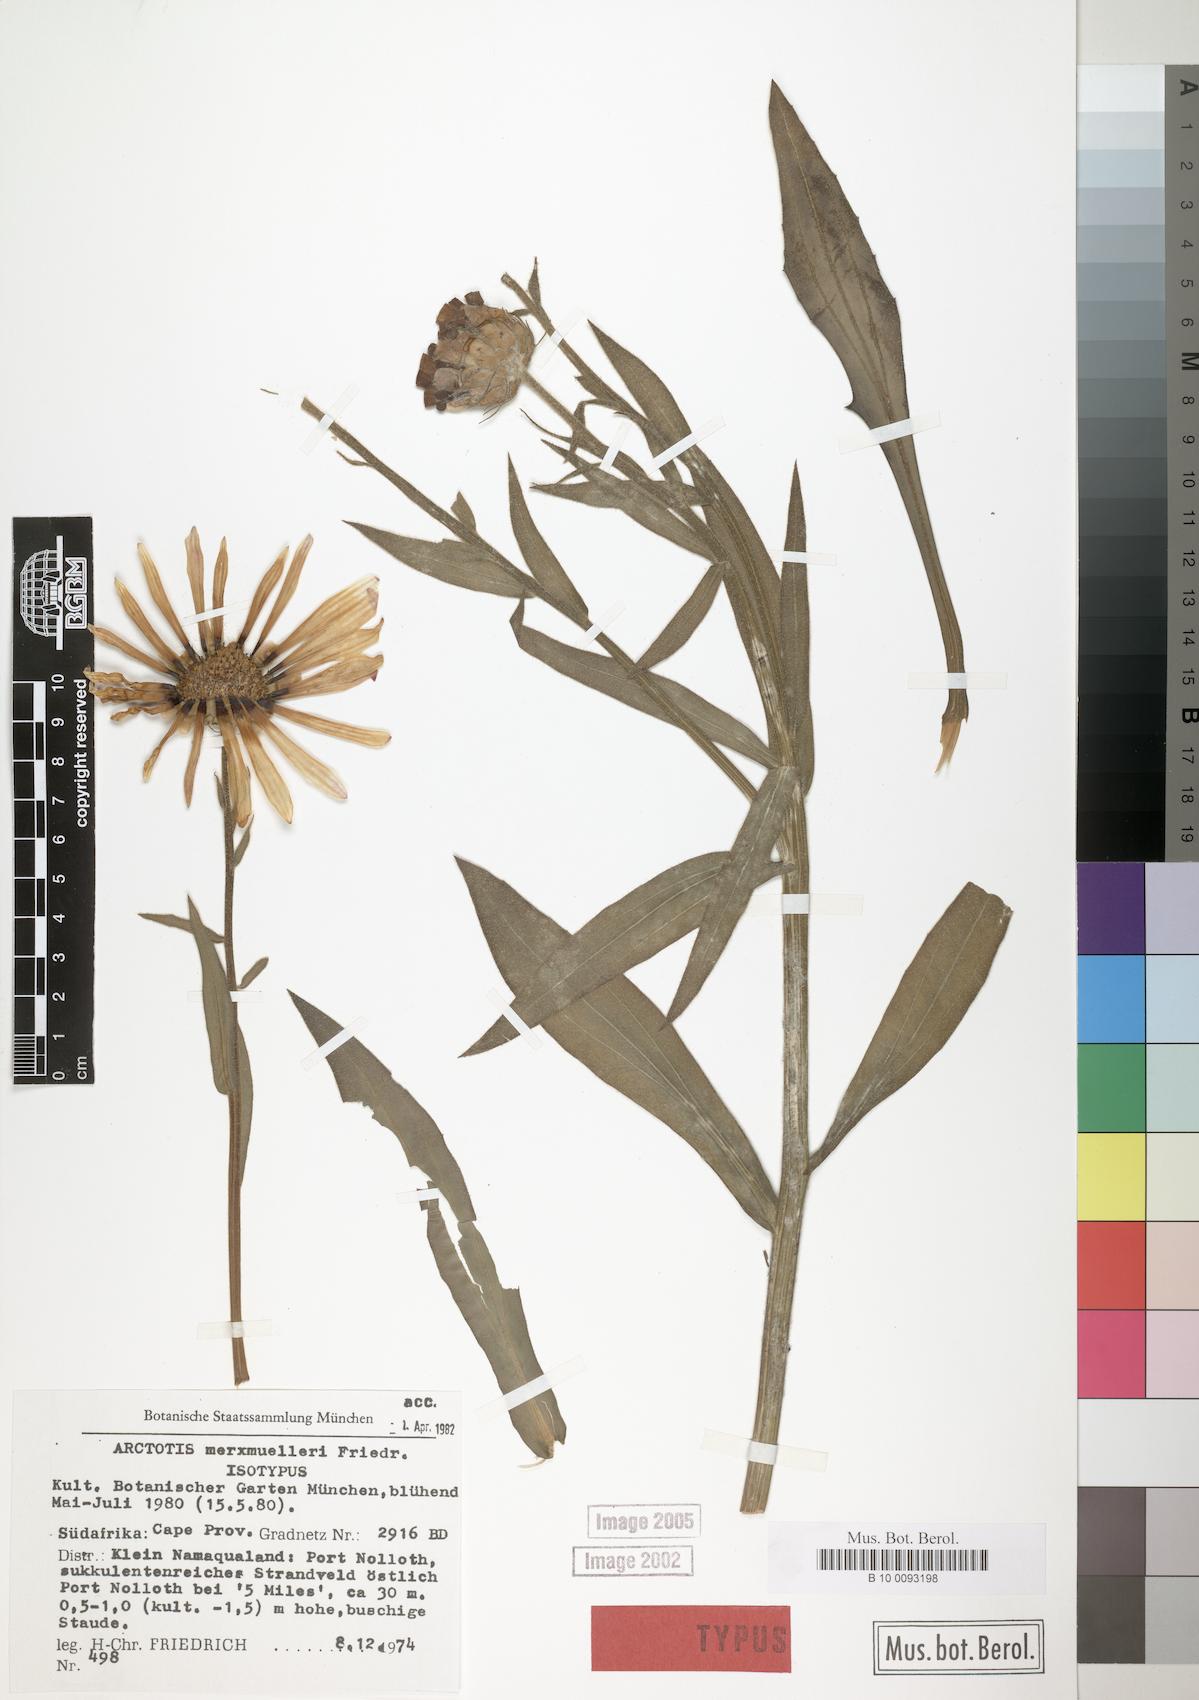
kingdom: Plantae
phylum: Tracheophyta
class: Magnoliopsida
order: Asterales
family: Asteraceae
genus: Arctotis
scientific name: Arctotis decurrens
